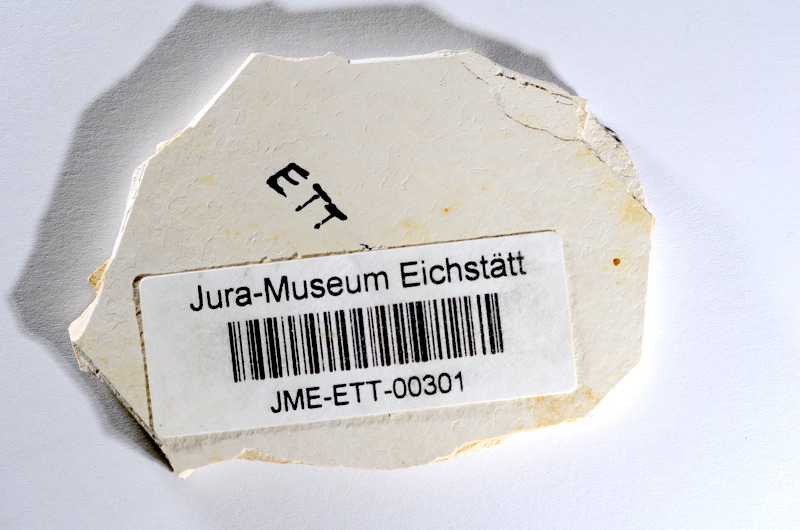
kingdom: Animalia
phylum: Chordata
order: Salmoniformes
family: Orthogonikleithridae
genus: Orthogonikleithrus
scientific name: Orthogonikleithrus hoelli
